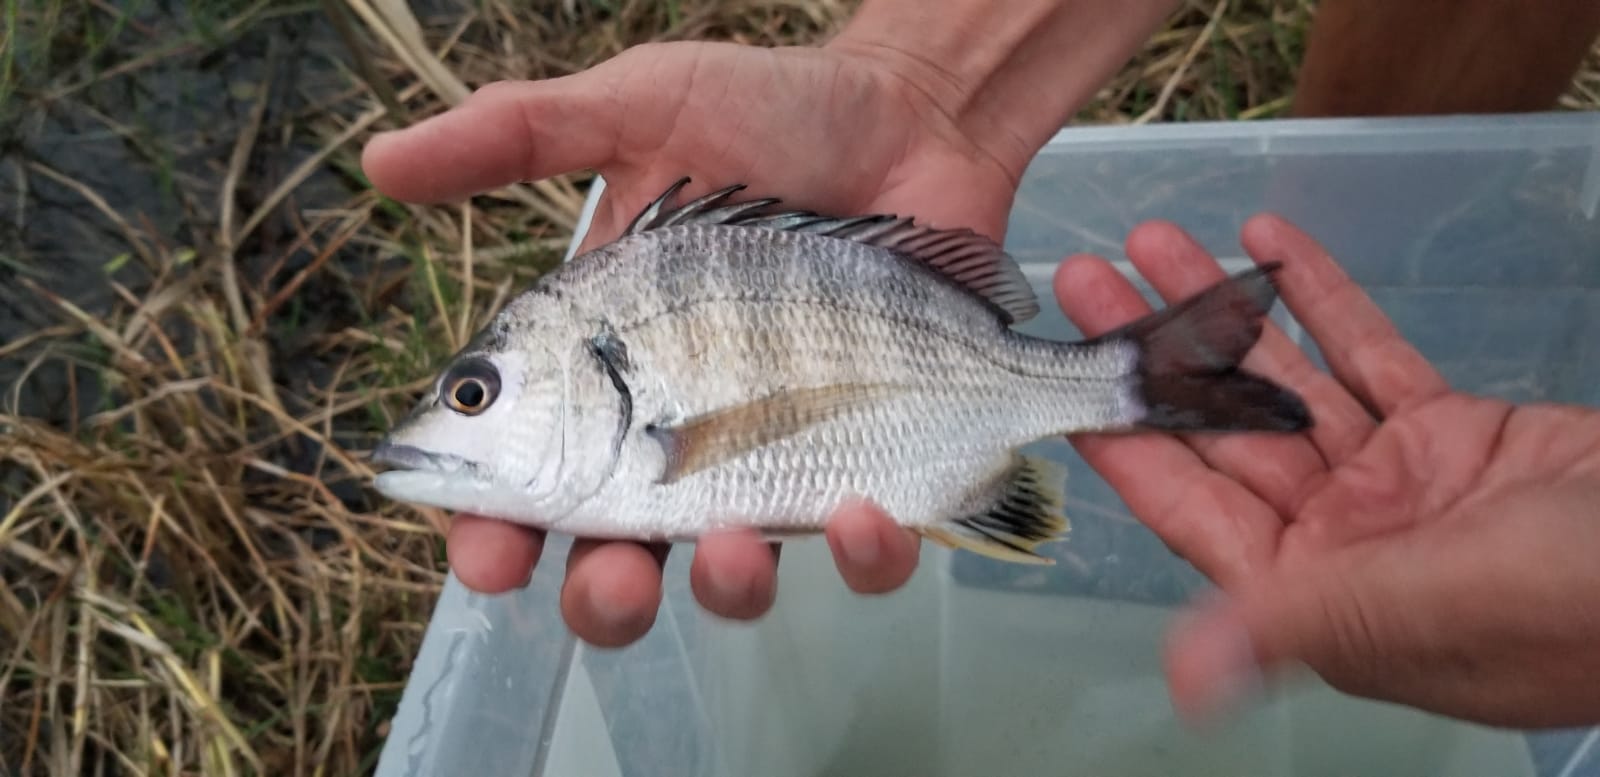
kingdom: Animalia
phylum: Chordata
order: Perciformes
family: Sparidae
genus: Acanthopagrus
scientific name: Acanthopagrus vagus
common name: Perch
